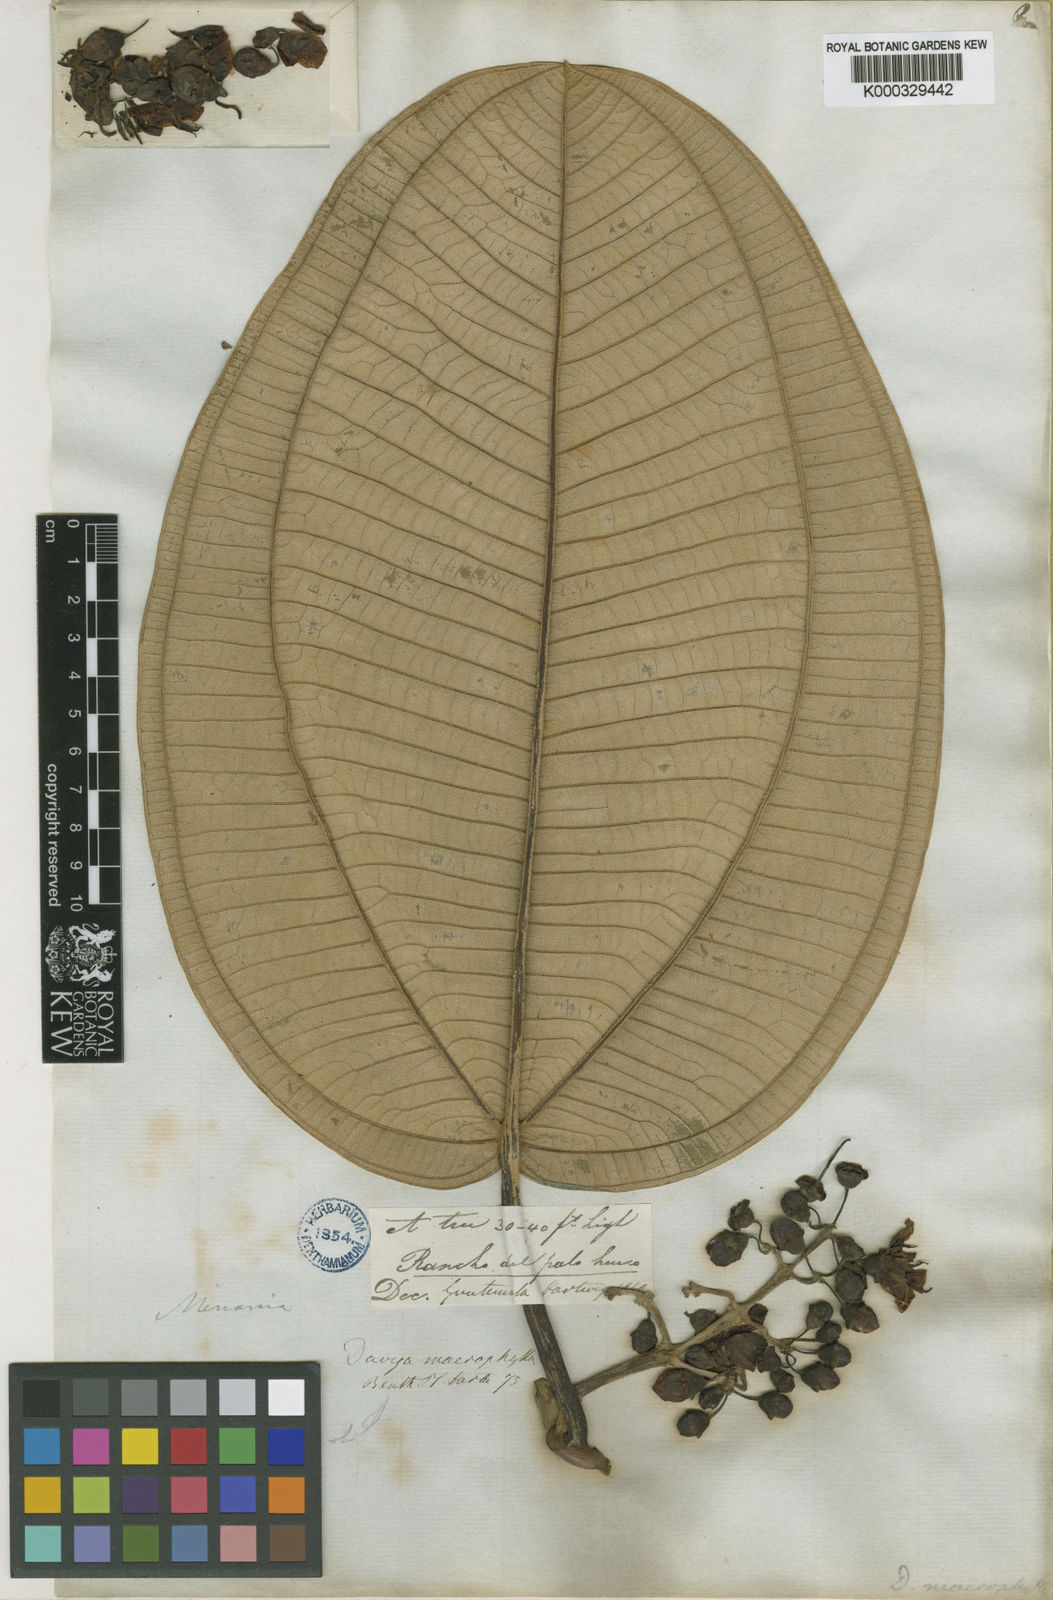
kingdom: Plantae
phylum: Tracheophyta
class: Magnoliopsida
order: Myrtales
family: Melastomataceae
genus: Meriania
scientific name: Meriania macrophylla
